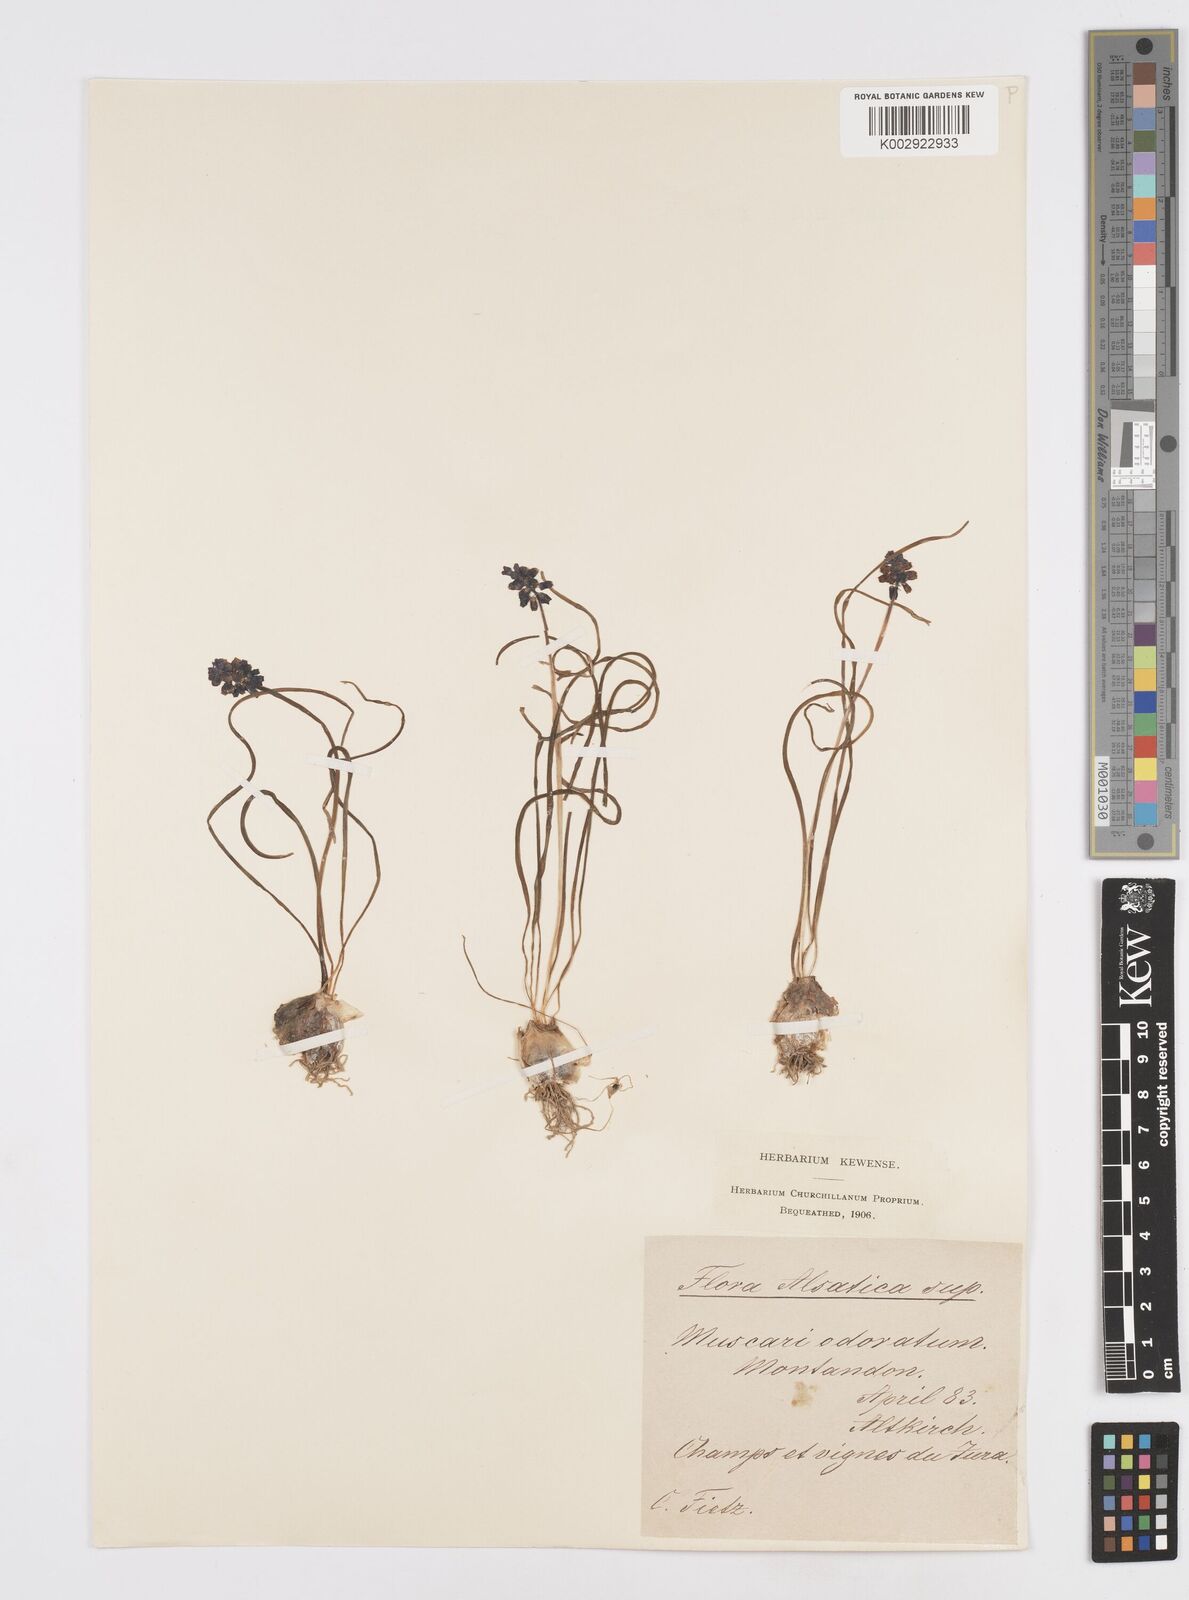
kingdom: Plantae
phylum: Tracheophyta
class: Liliopsida
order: Asparagales
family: Asparagaceae
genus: Muscarimia
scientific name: Muscarimia muscari
